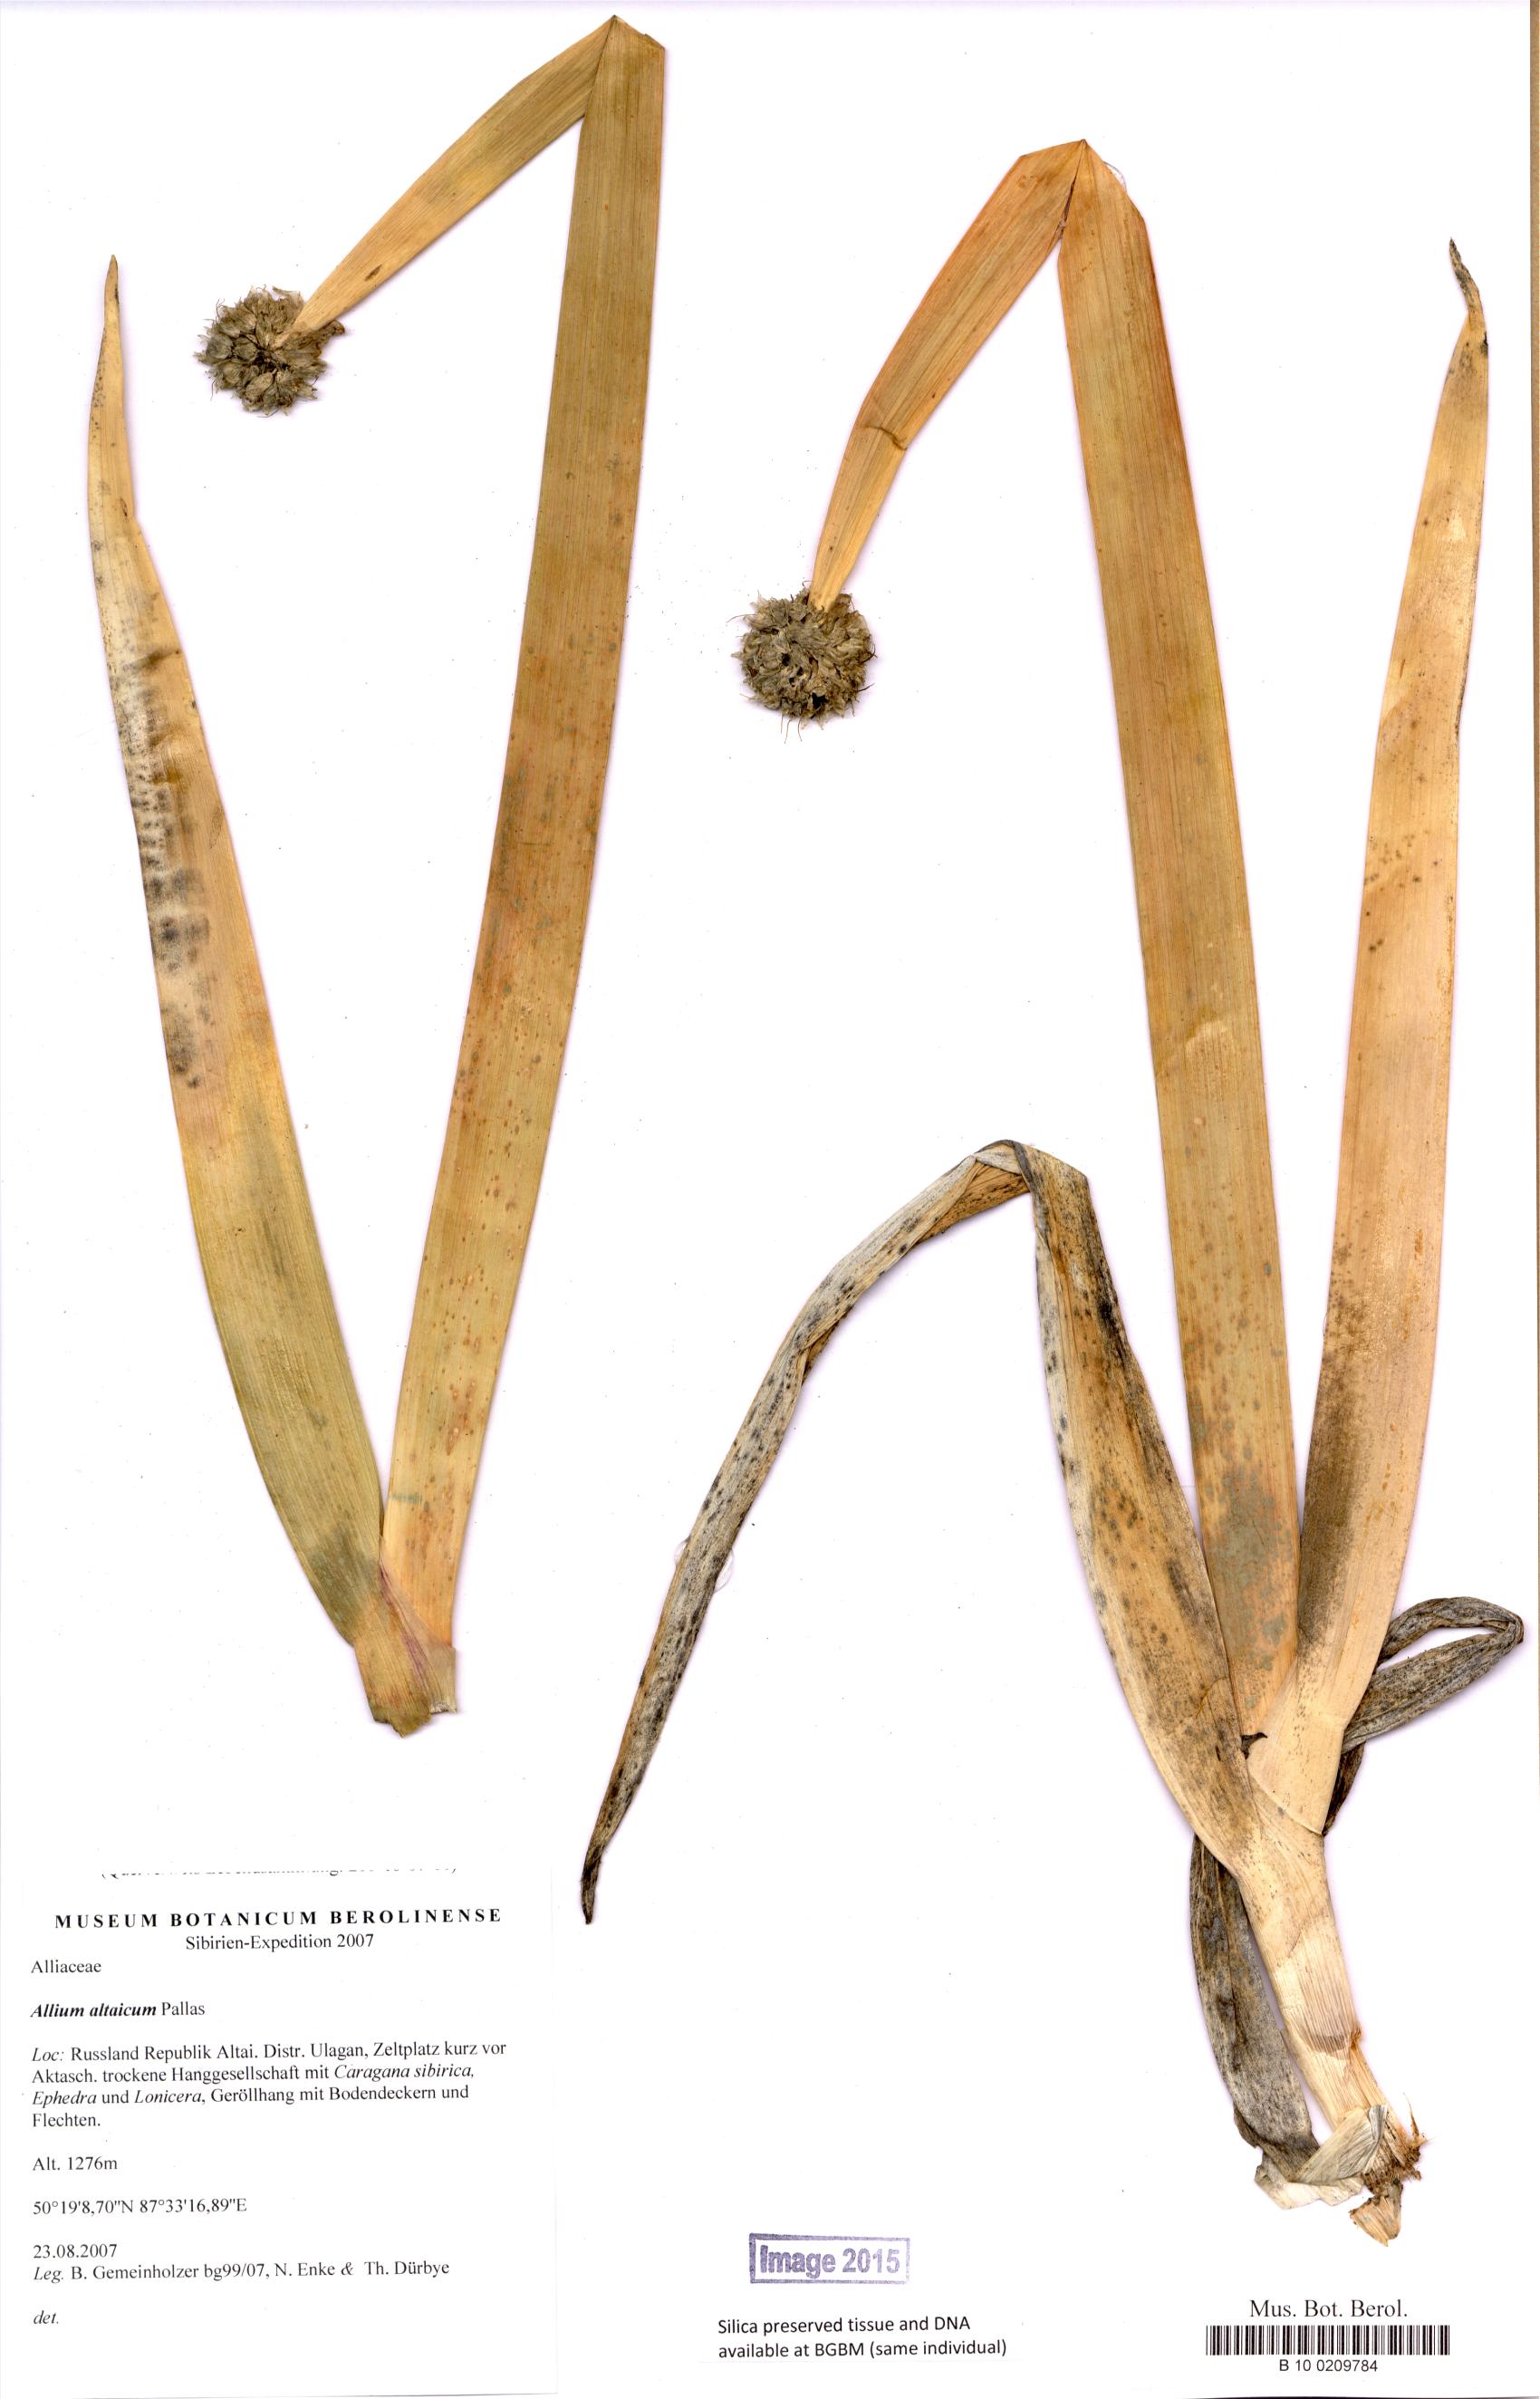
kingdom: Plantae
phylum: Tracheophyta
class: Liliopsida
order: Asparagales
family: Amaryllidaceae
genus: Allium
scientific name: Allium altaicum
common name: Altai onion
